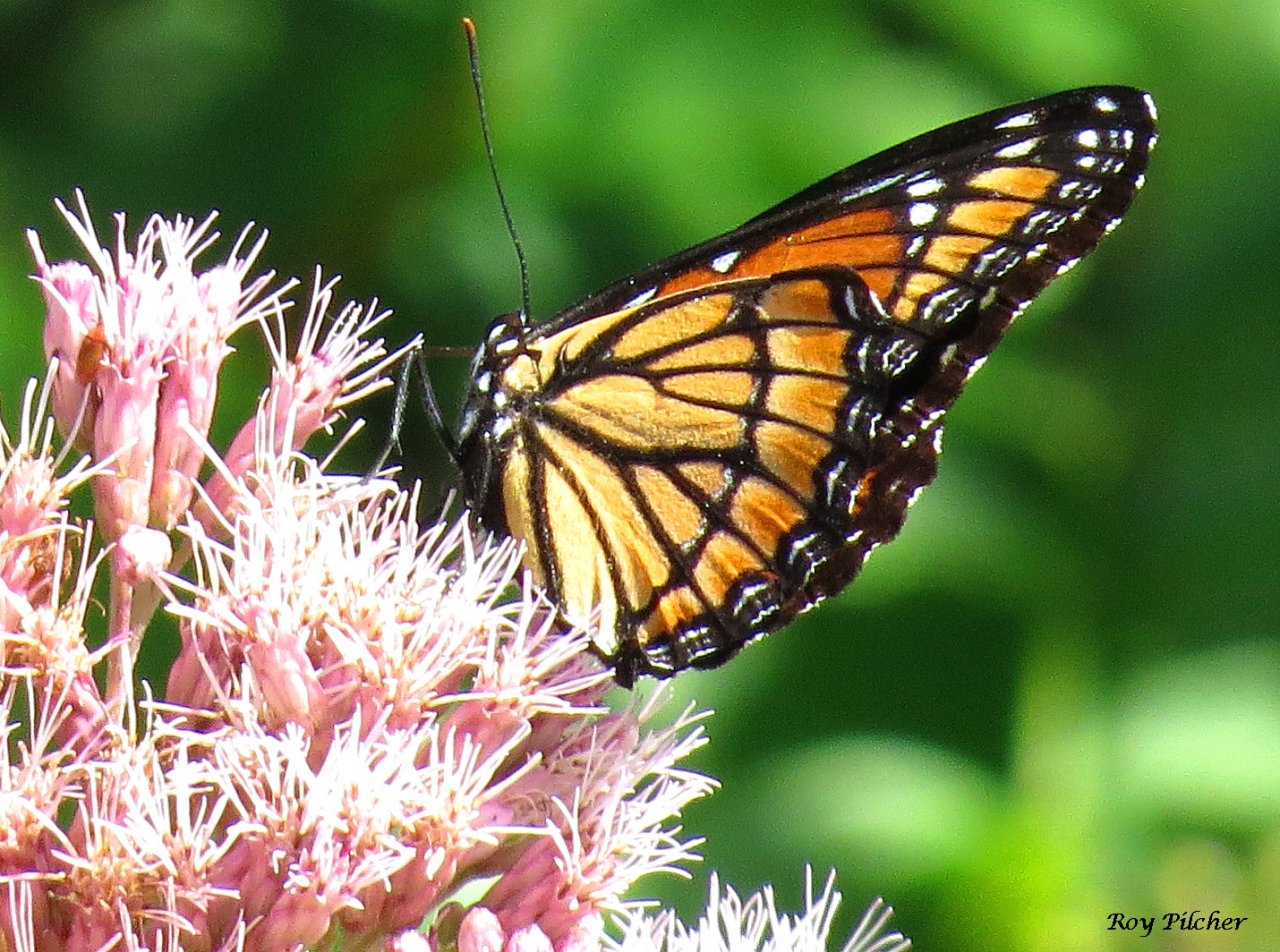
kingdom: Animalia
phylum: Arthropoda
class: Insecta
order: Lepidoptera
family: Nymphalidae
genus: Limenitis
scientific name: Limenitis archippus
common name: Viceroy
